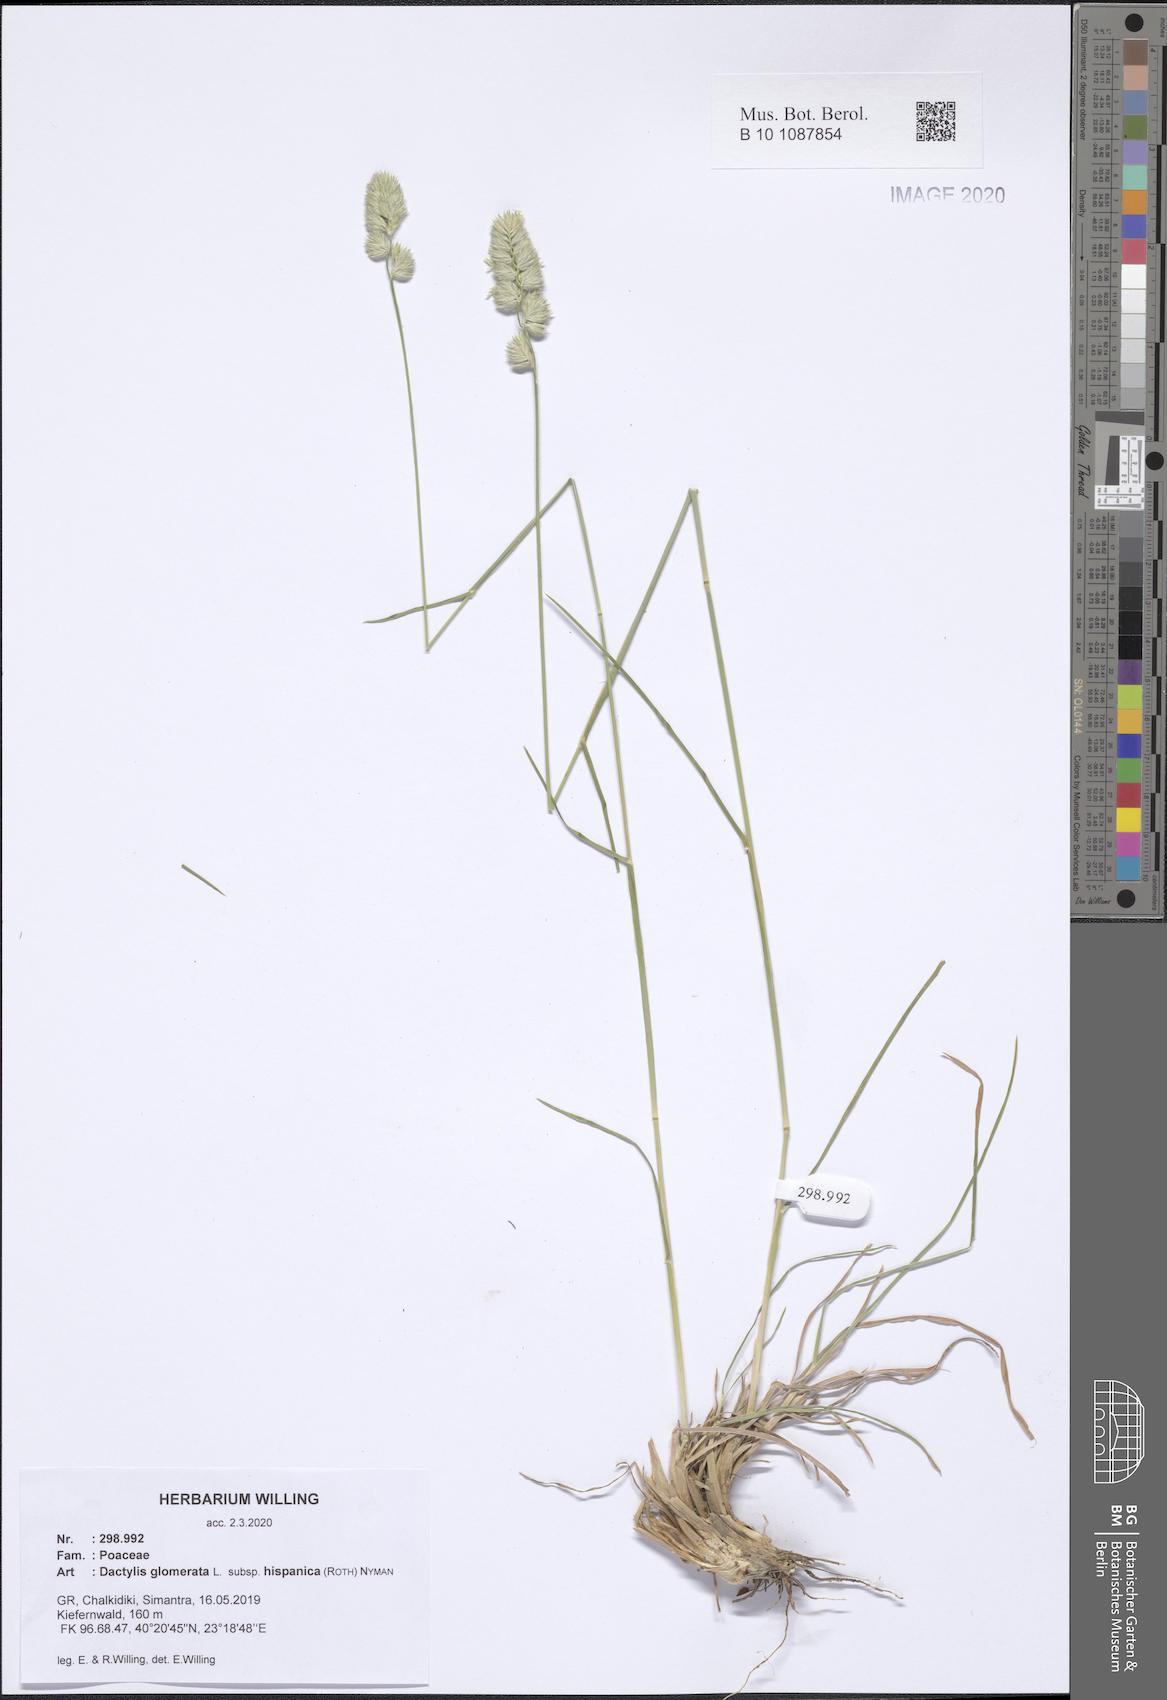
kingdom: Plantae
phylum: Tracheophyta
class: Liliopsida
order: Poales
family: Poaceae
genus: Dactylis
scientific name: Dactylis glomerata
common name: Orchardgrass
